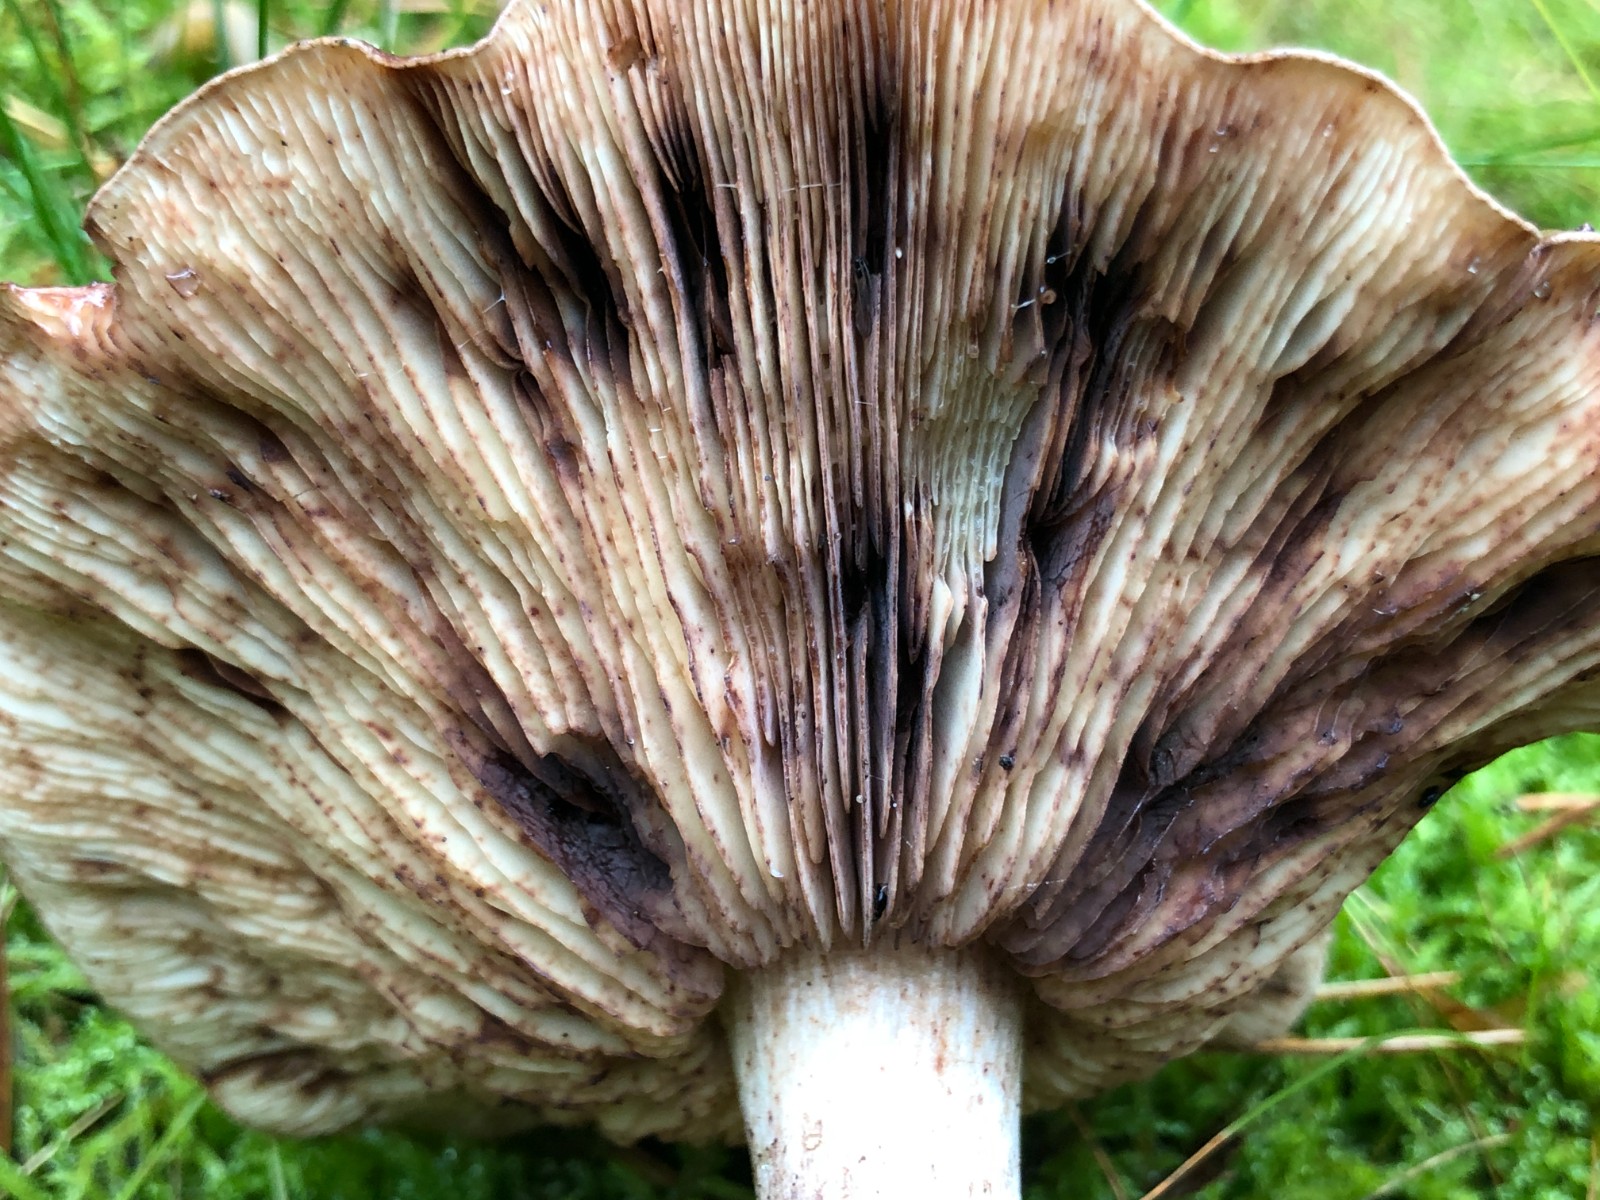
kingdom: Fungi
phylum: Basidiomycota
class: Agaricomycetes
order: Agaricales
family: Tricholomataceae
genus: Tricholoma
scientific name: Tricholoma fulvum
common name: birke-ridderhat
